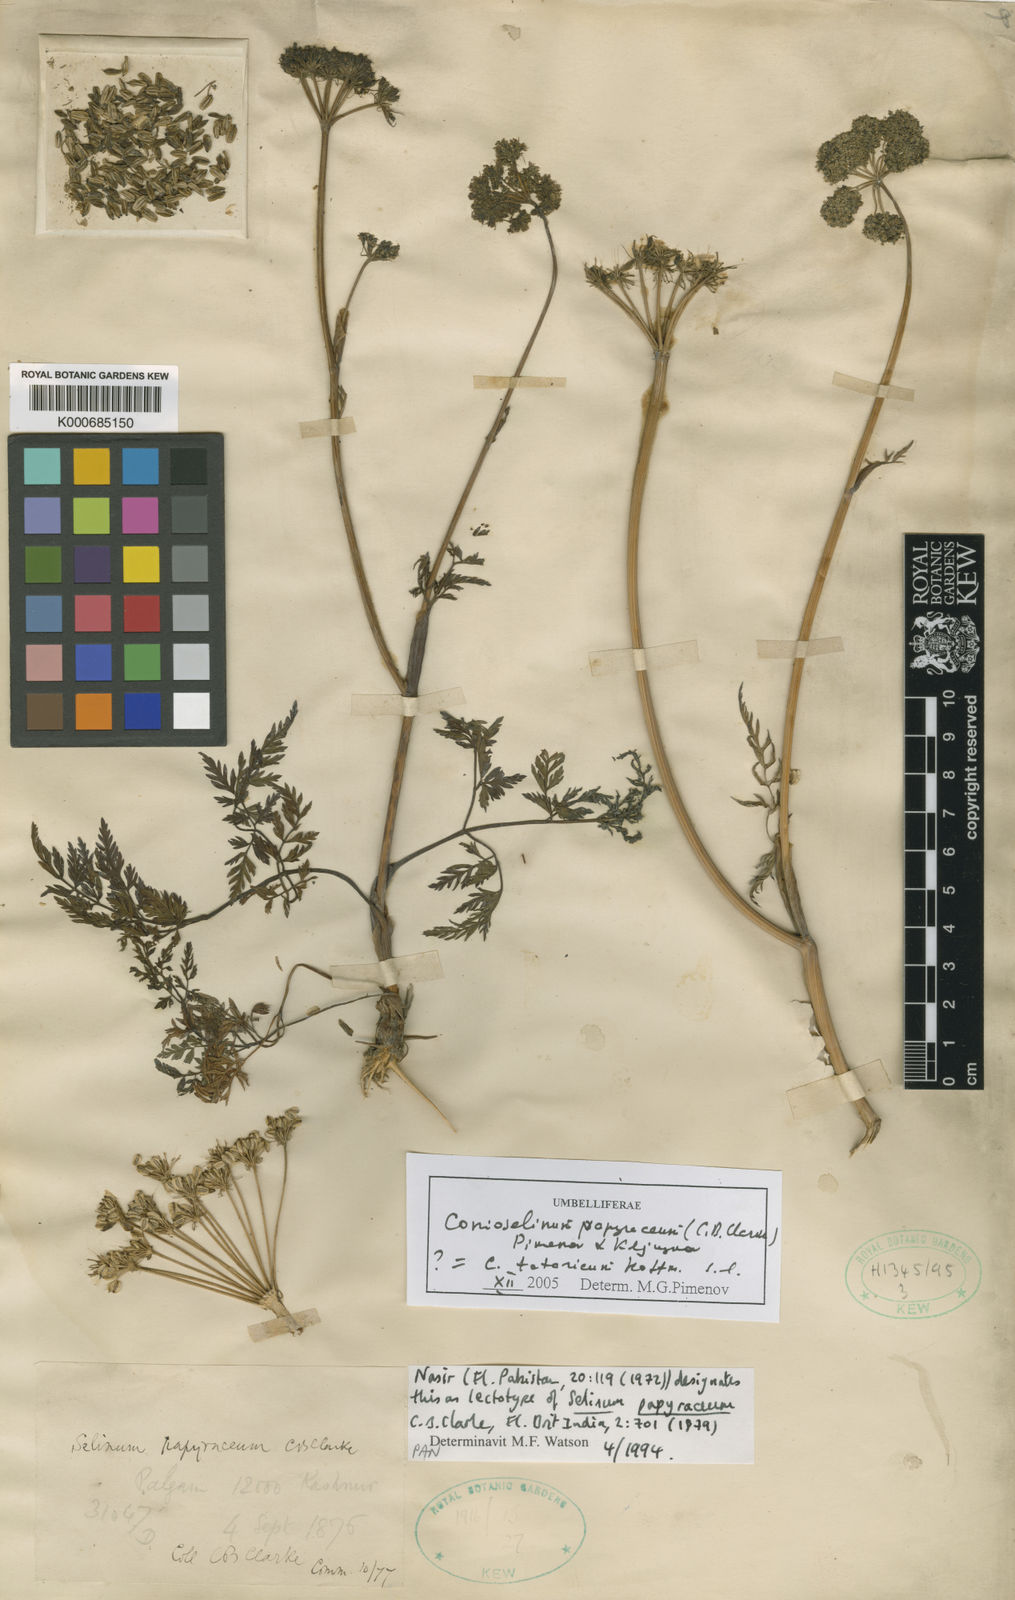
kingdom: Plantae
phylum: Tracheophyta
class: Magnoliopsida
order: Apiales
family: Apiaceae
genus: Conioselinum
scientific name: Conioselinum tataricum
